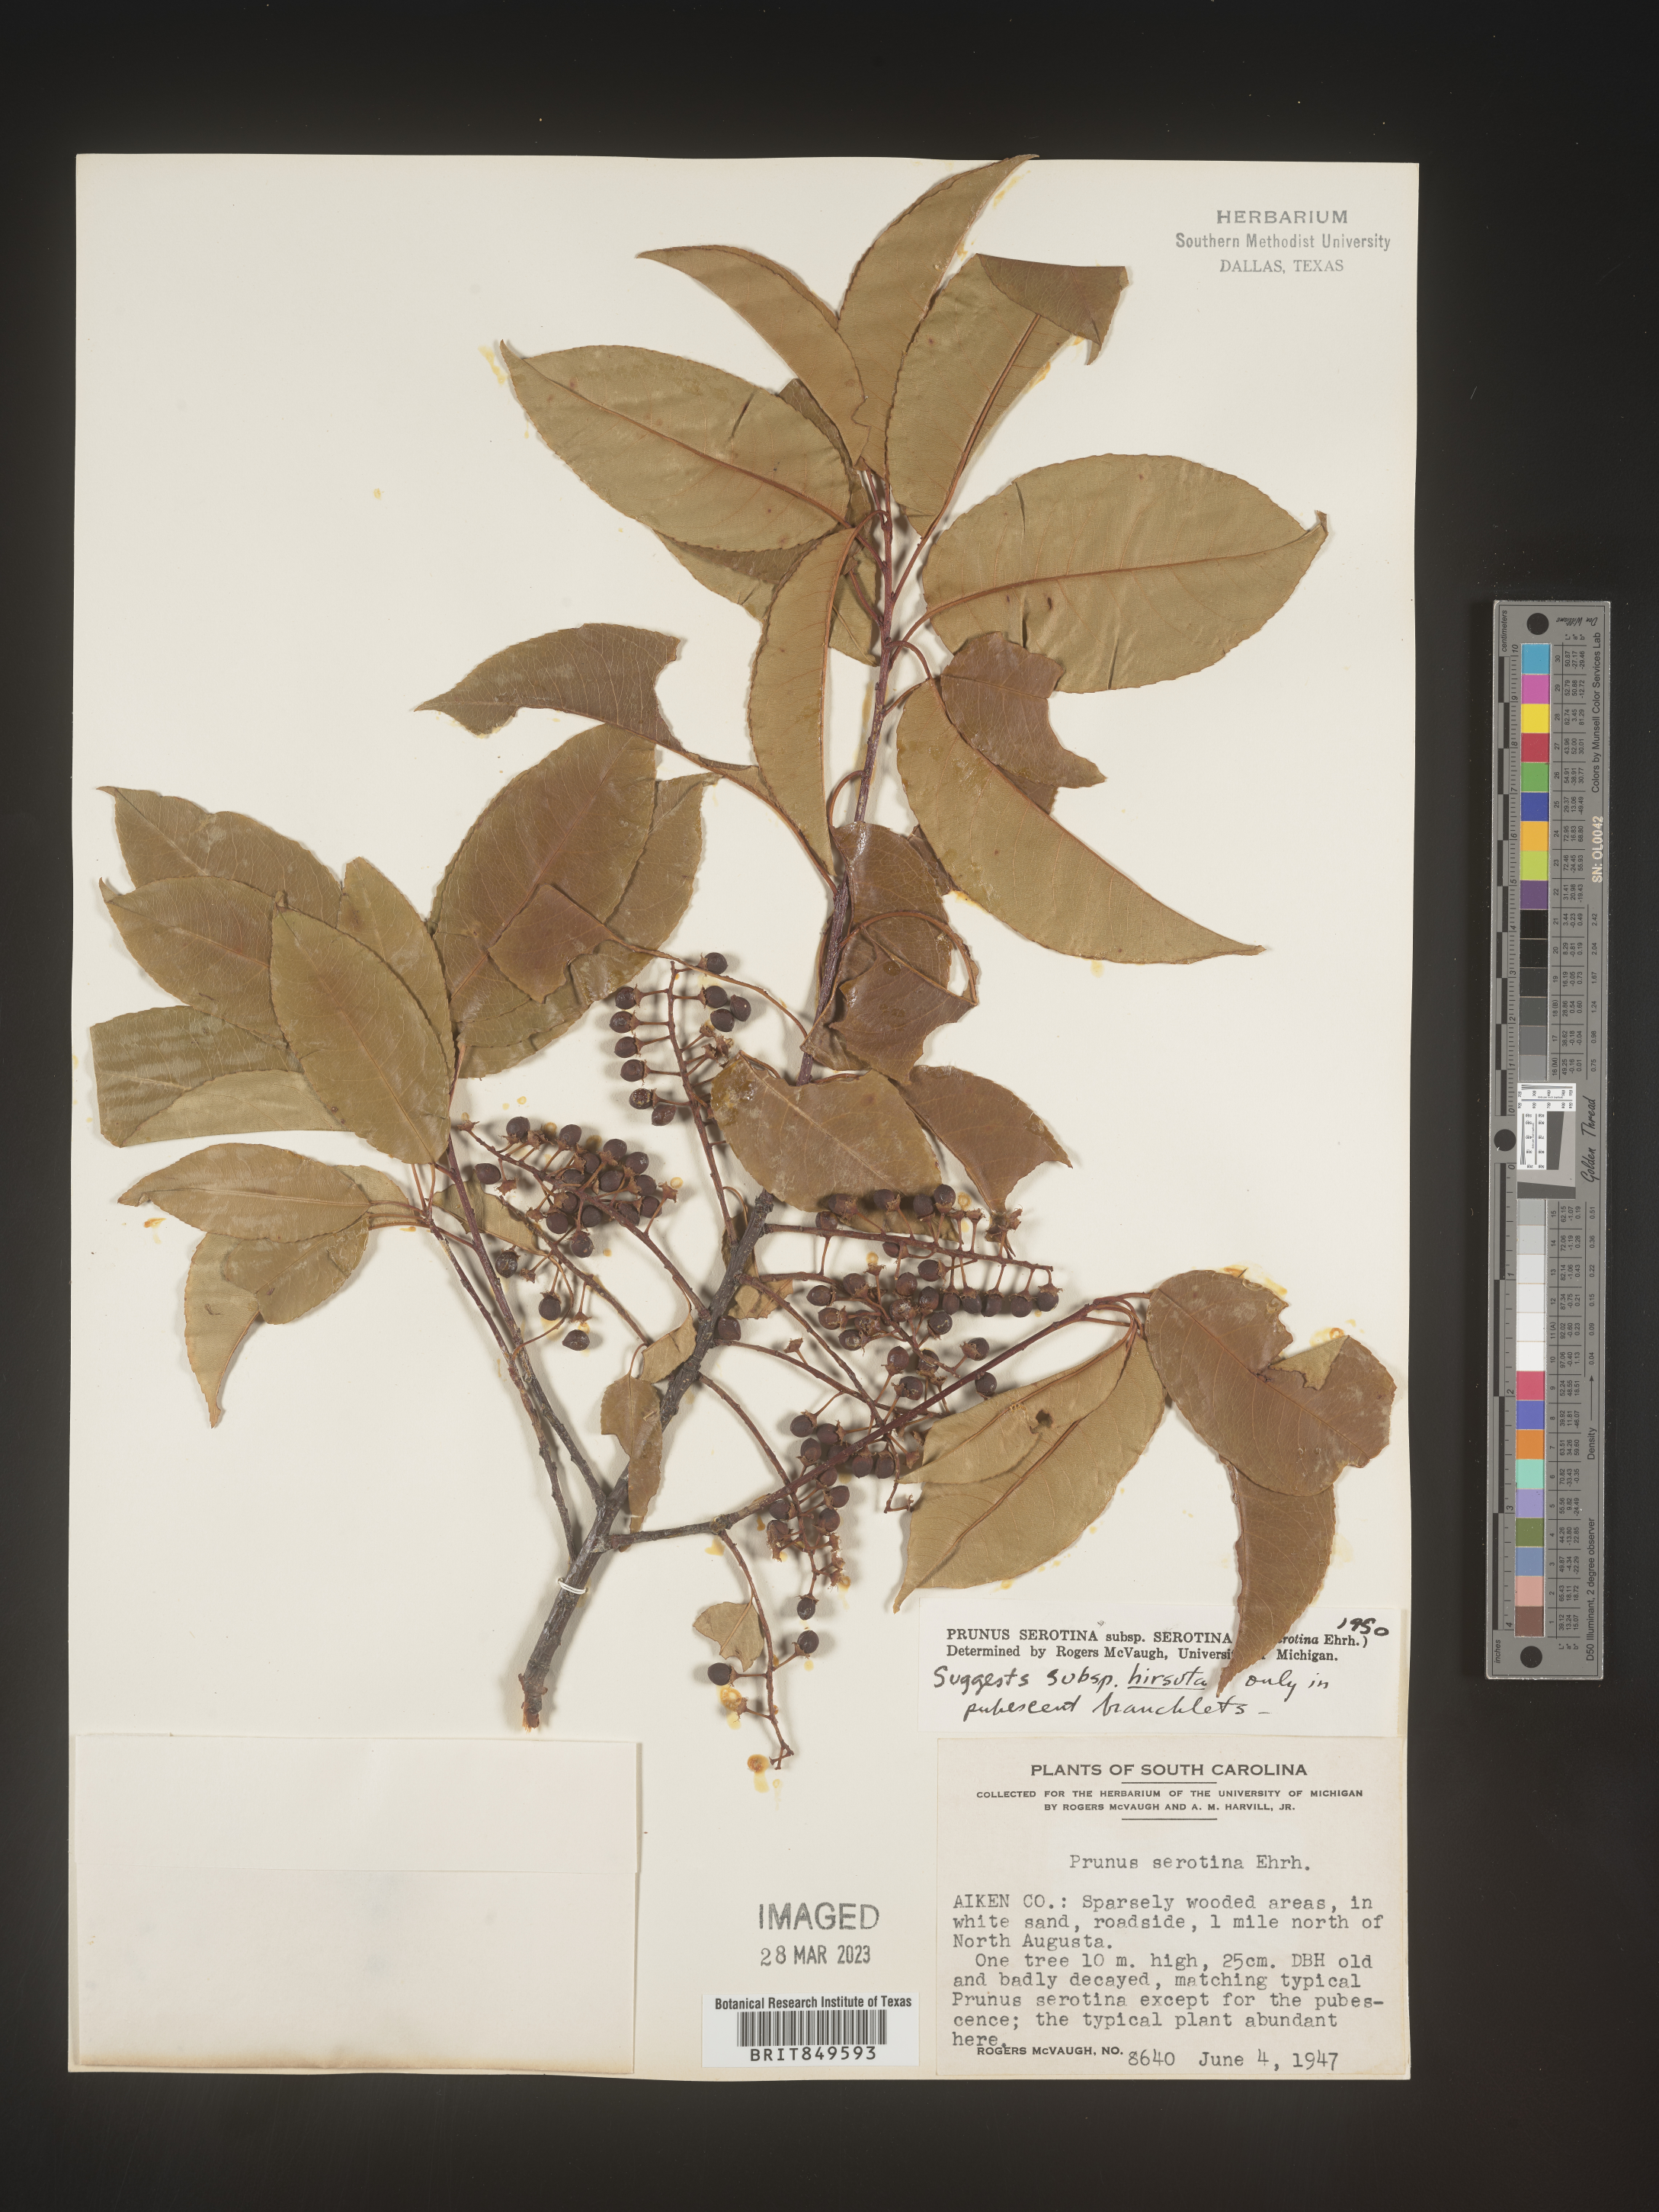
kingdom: Plantae
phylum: Tracheophyta
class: Magnoliopsida
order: Rosales
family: Rosaceae
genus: Prunus
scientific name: Prunus serotina
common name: Black cherry
